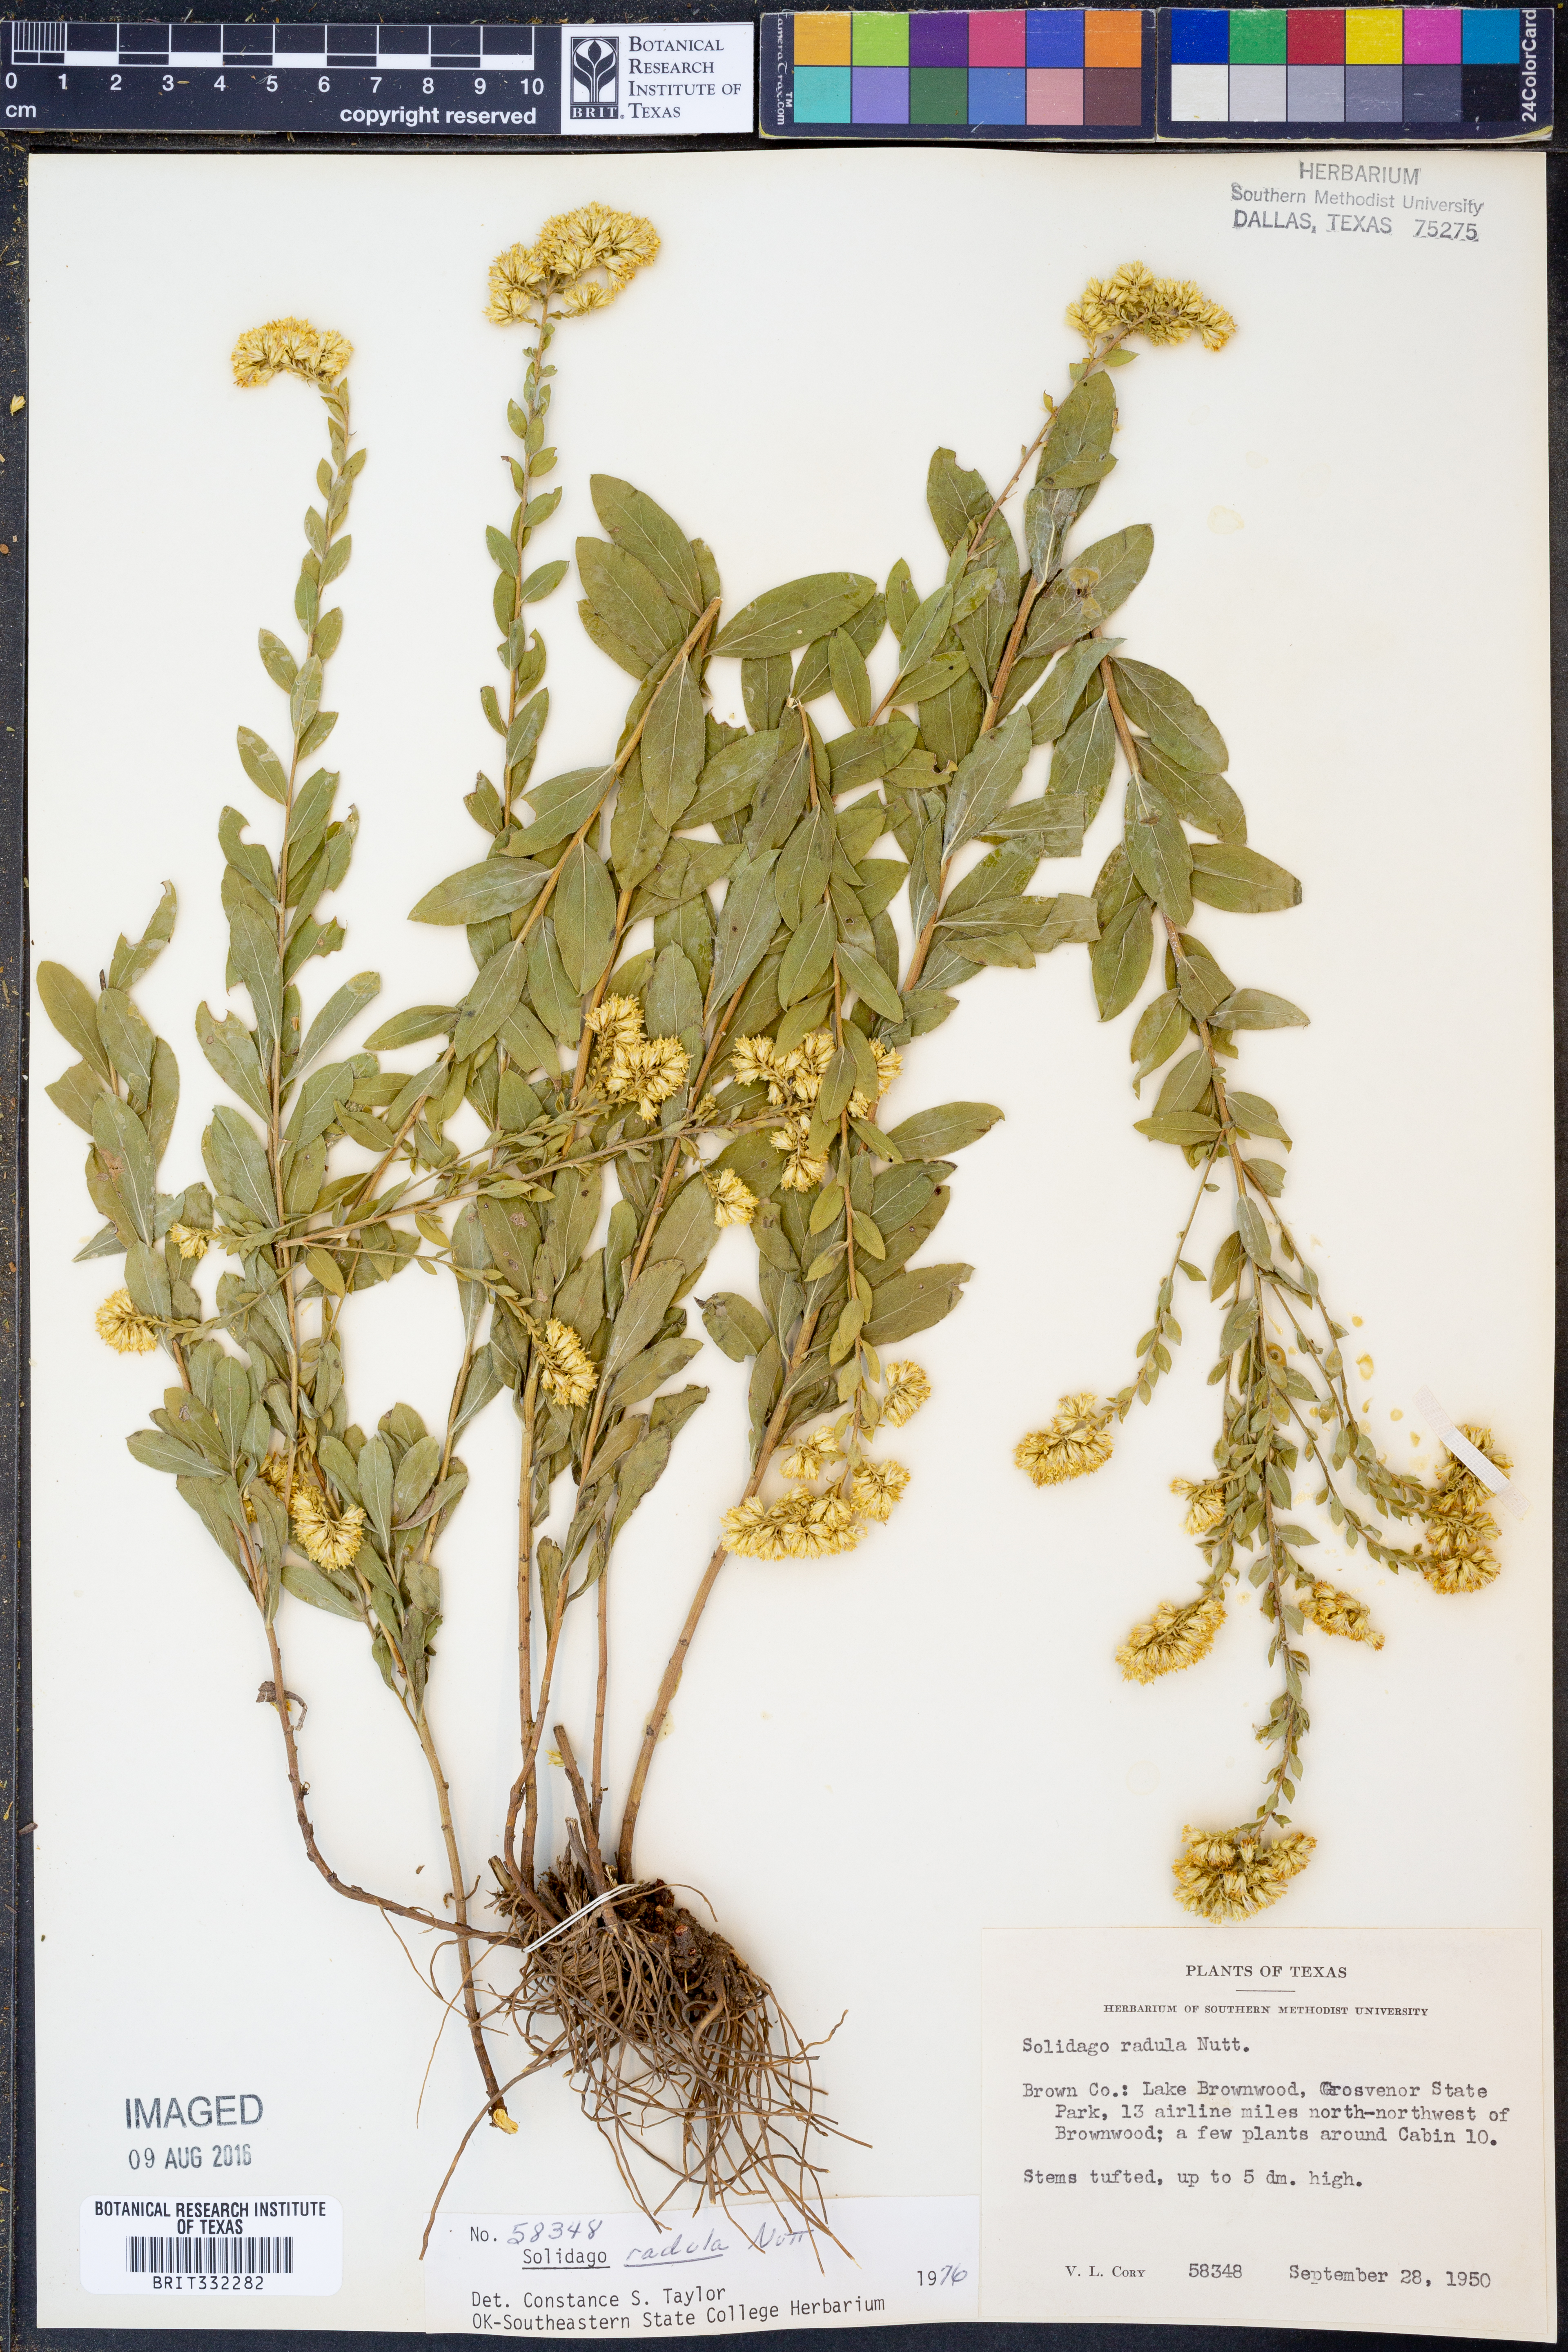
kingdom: Plantae
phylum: Tracheophyta
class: Magnoliopsida
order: Asterales
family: Asteraceae
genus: Solidago
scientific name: Solidago radula
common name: Western rough goldenrod
